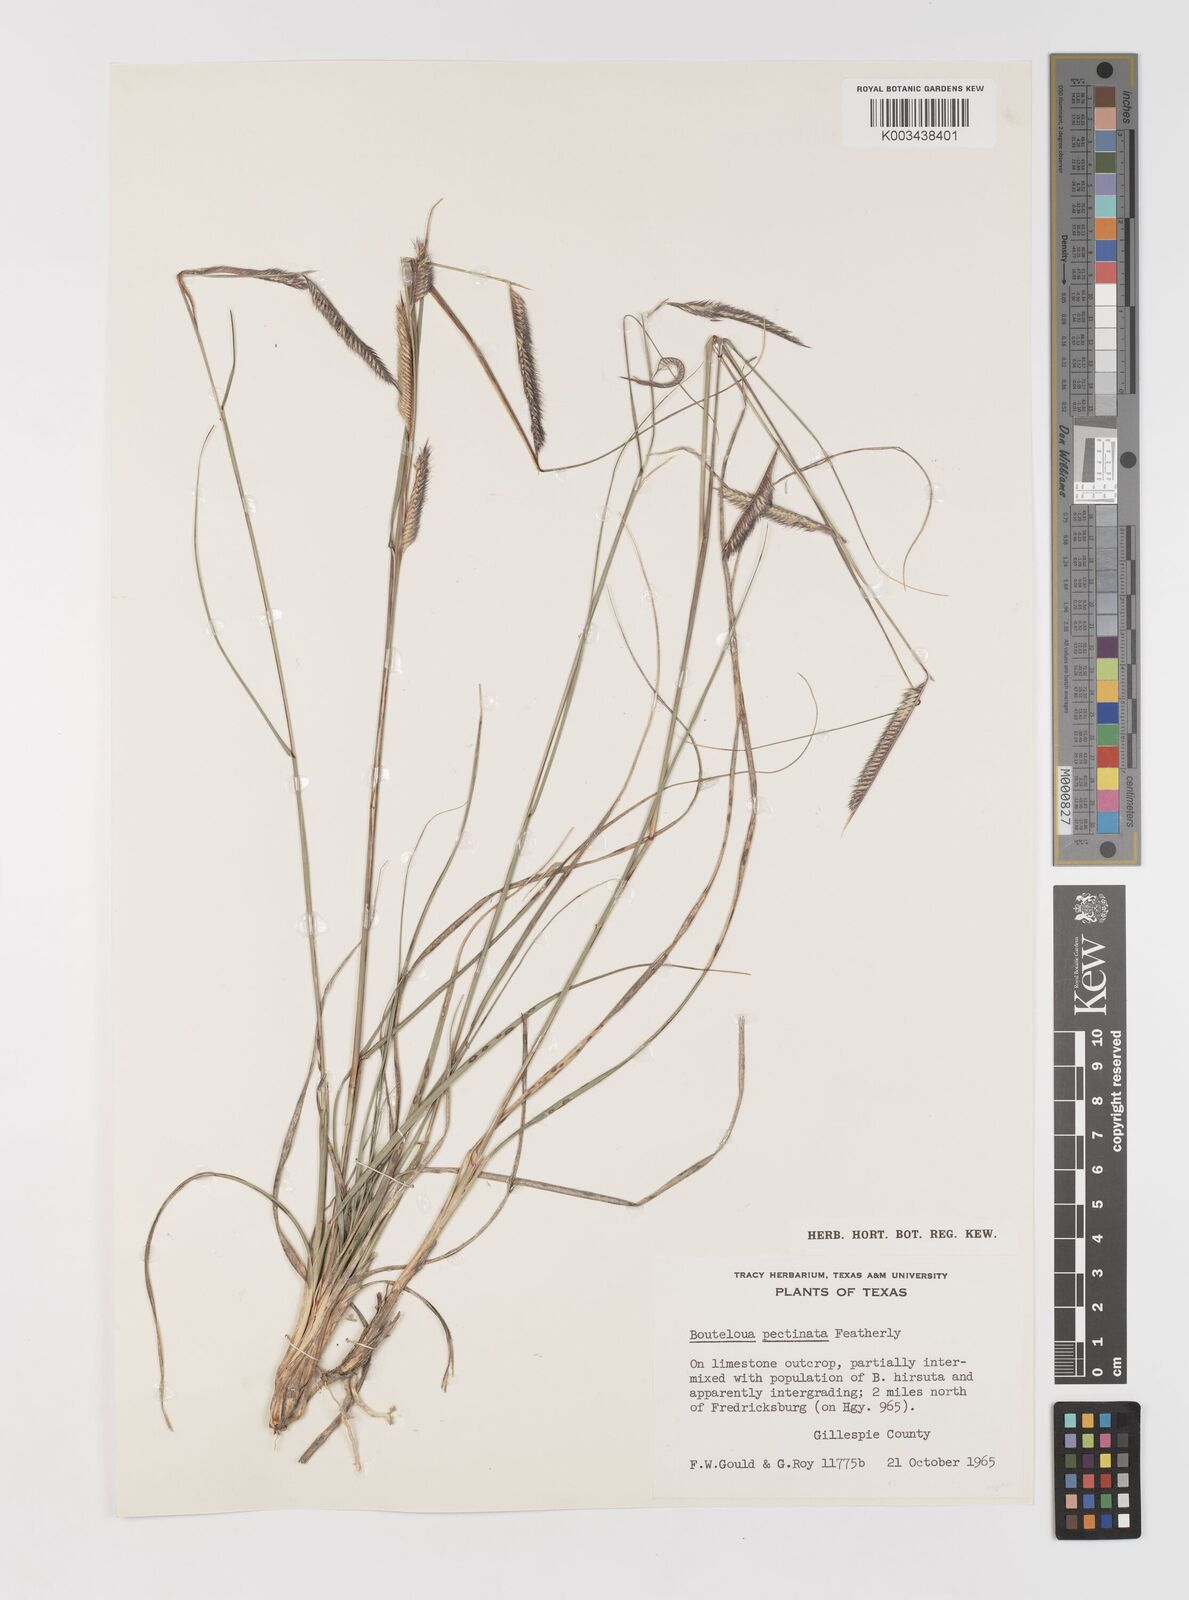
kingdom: Plantae
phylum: Tracheophyta
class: Liliopsida
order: Poales
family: Poaceae
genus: Bouteloua
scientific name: Bouteloua pectinata
